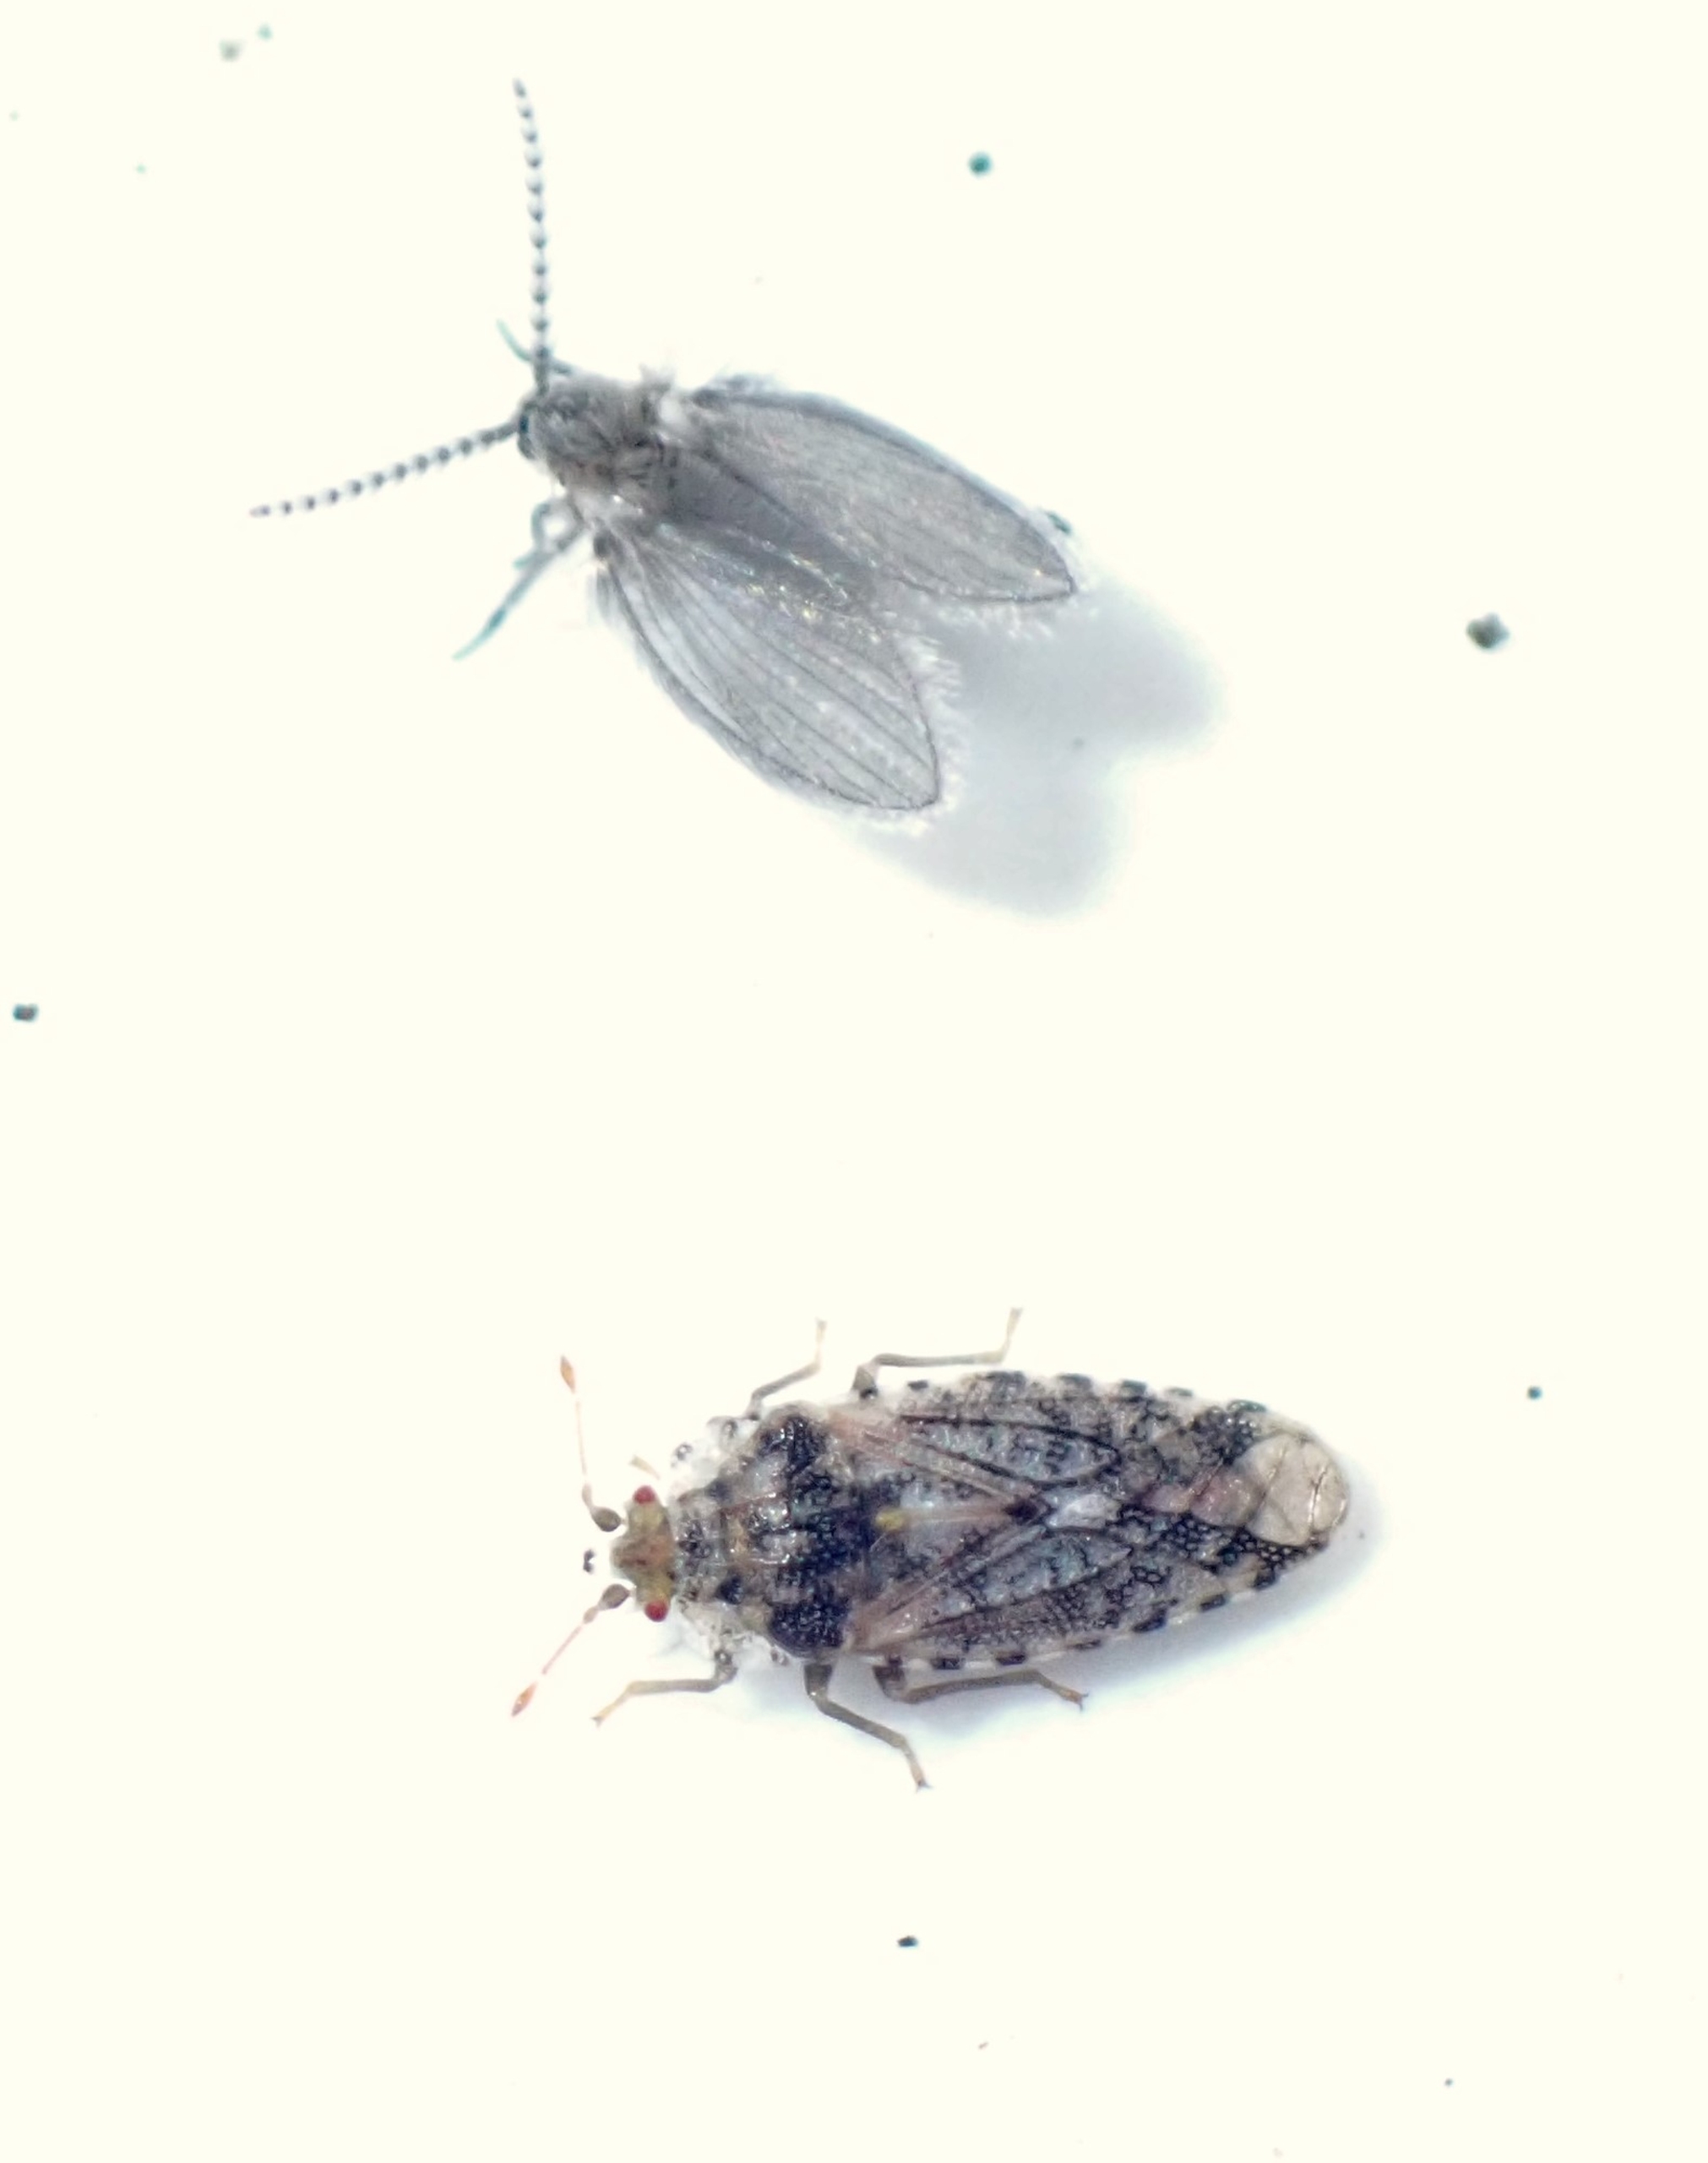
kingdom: Animalia
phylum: Arthropoda
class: Insecta
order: Hemiptera
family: Piesmatidae
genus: Parapiesma
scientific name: Parapiesma quadratum
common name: Mældetæge
